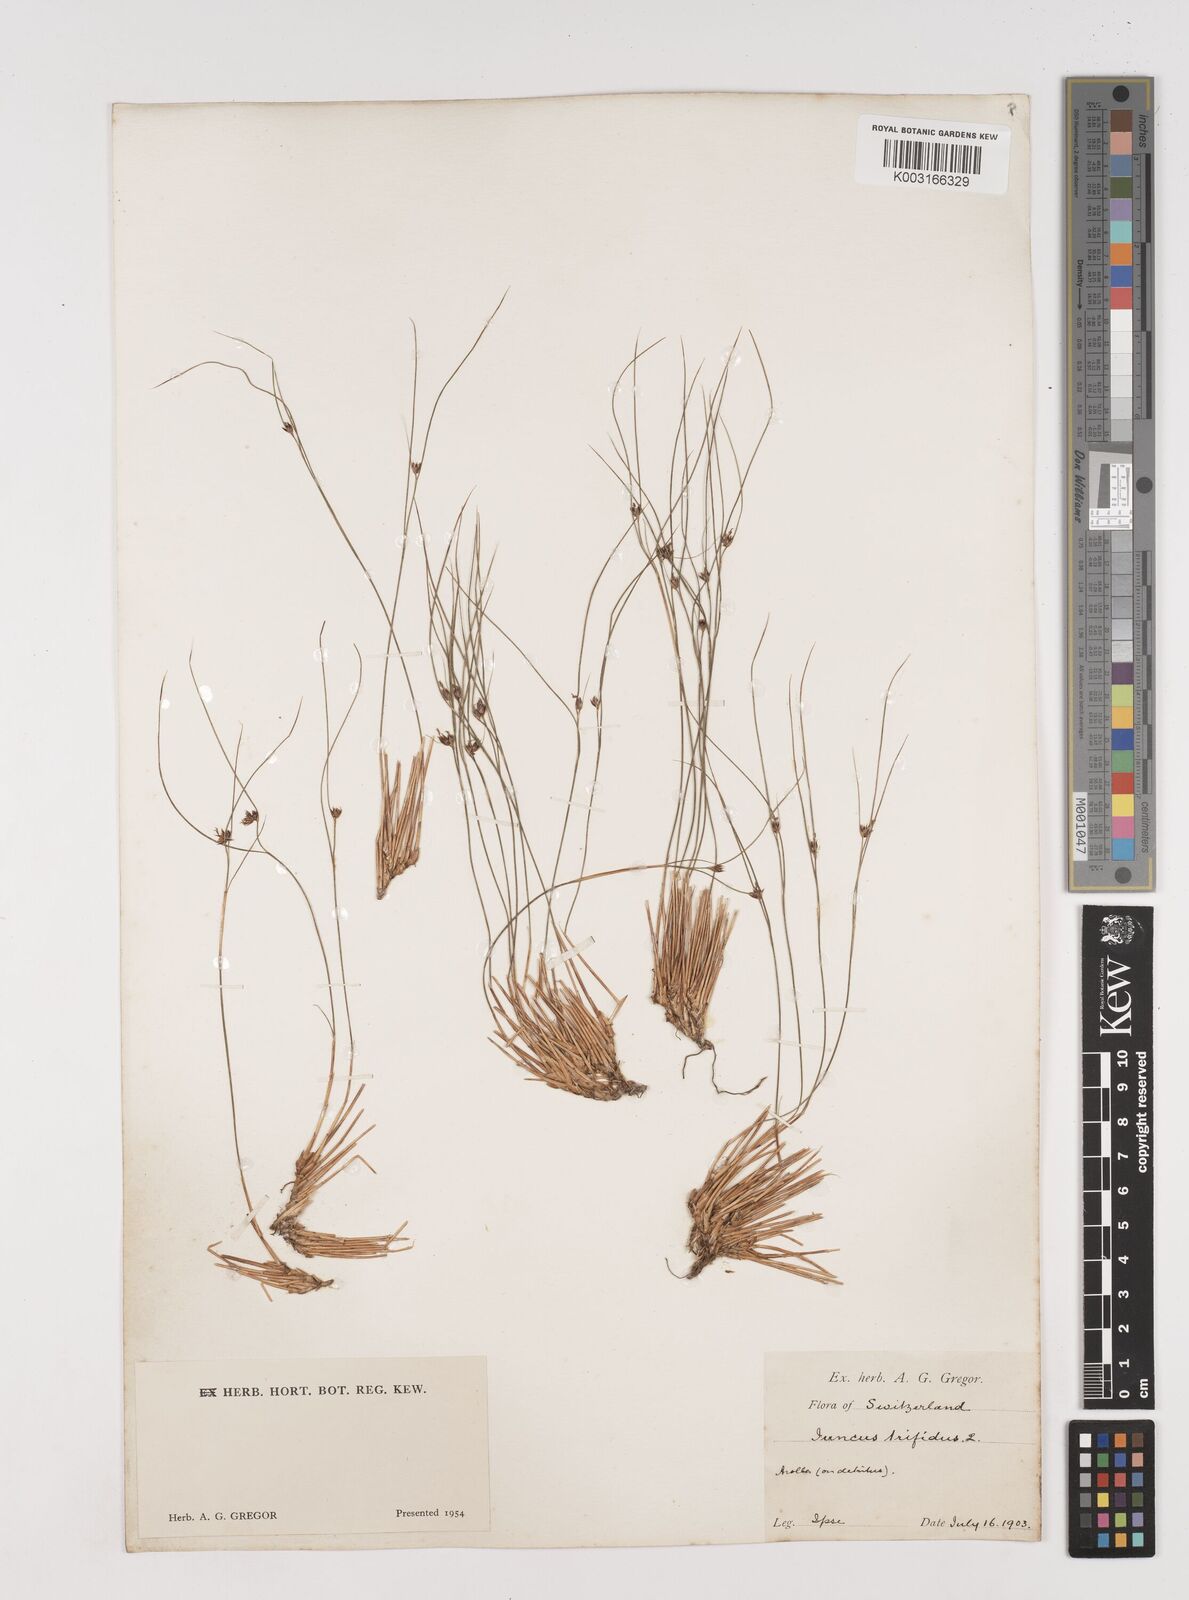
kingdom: Plantae
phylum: Tracheophyta
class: Liliopsida
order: Poales
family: Juncaceae
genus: Oreojuncus
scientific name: Oreojuncus trifidus
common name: Highland rush
